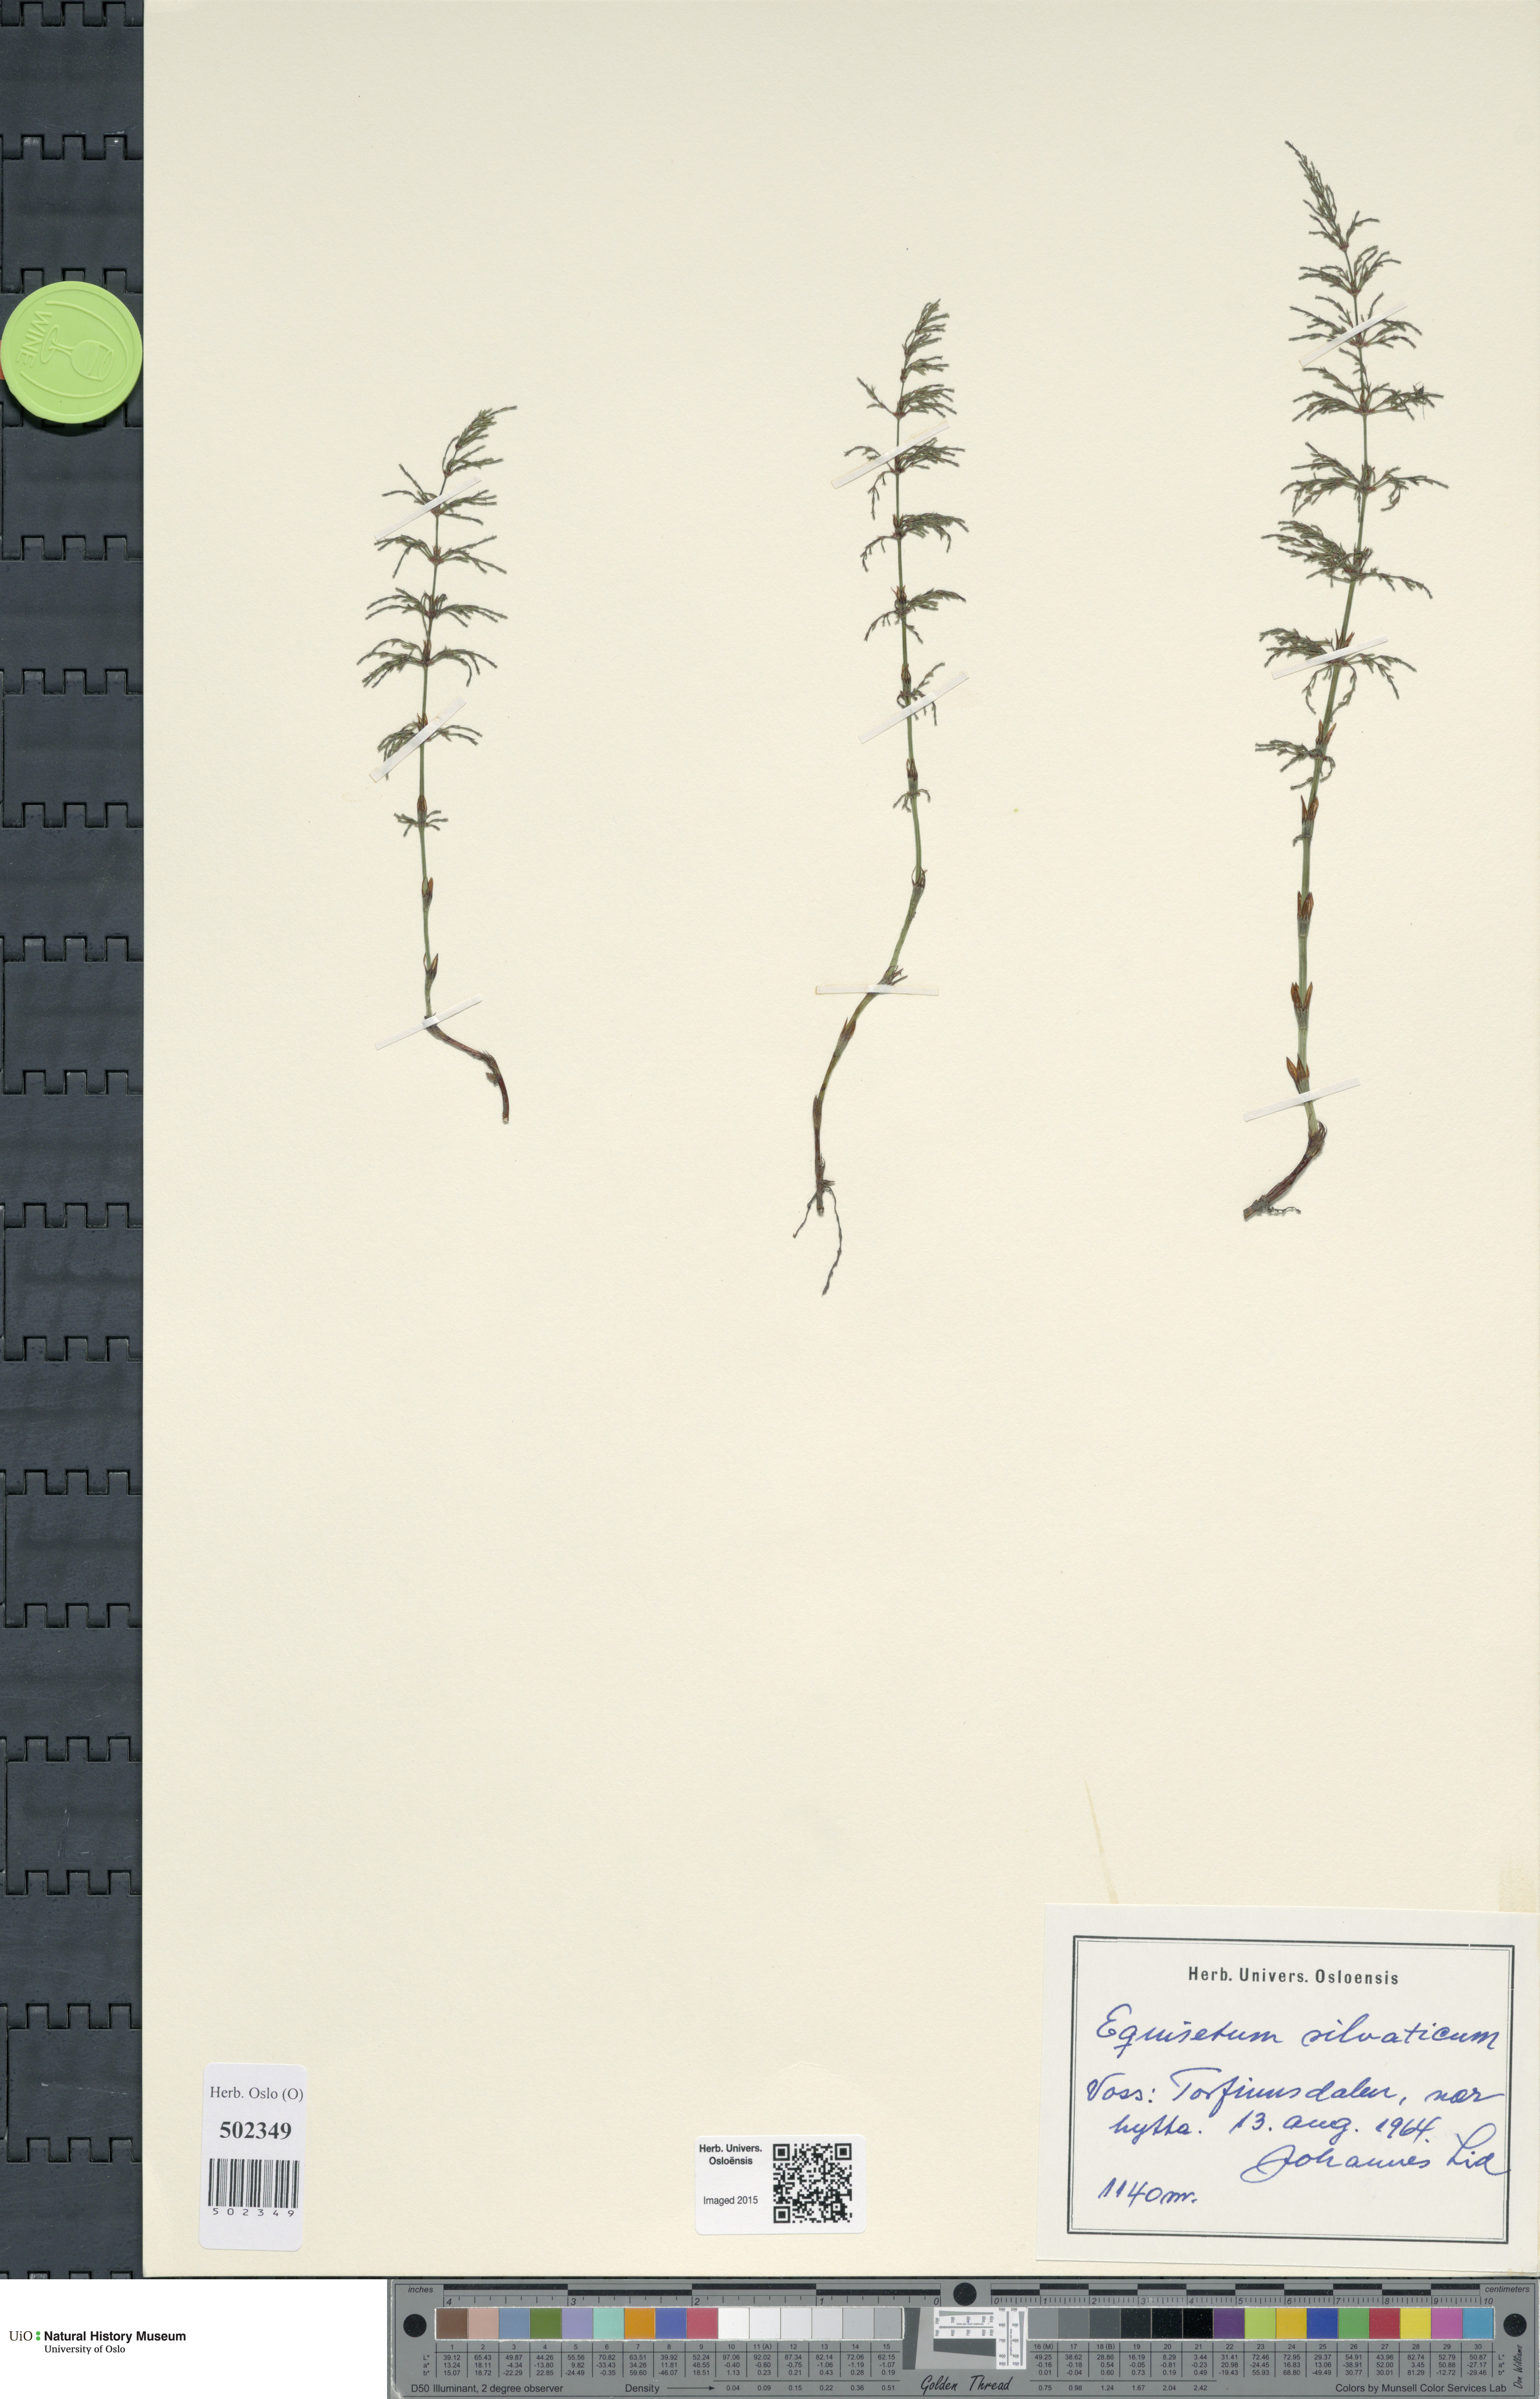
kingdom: Plantae
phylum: Tracheophyta
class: Polypodiopsida
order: Equisetales
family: Equisetaceae
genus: Equisetum
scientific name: Equisetum sylvaticum
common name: Wood horsetail
